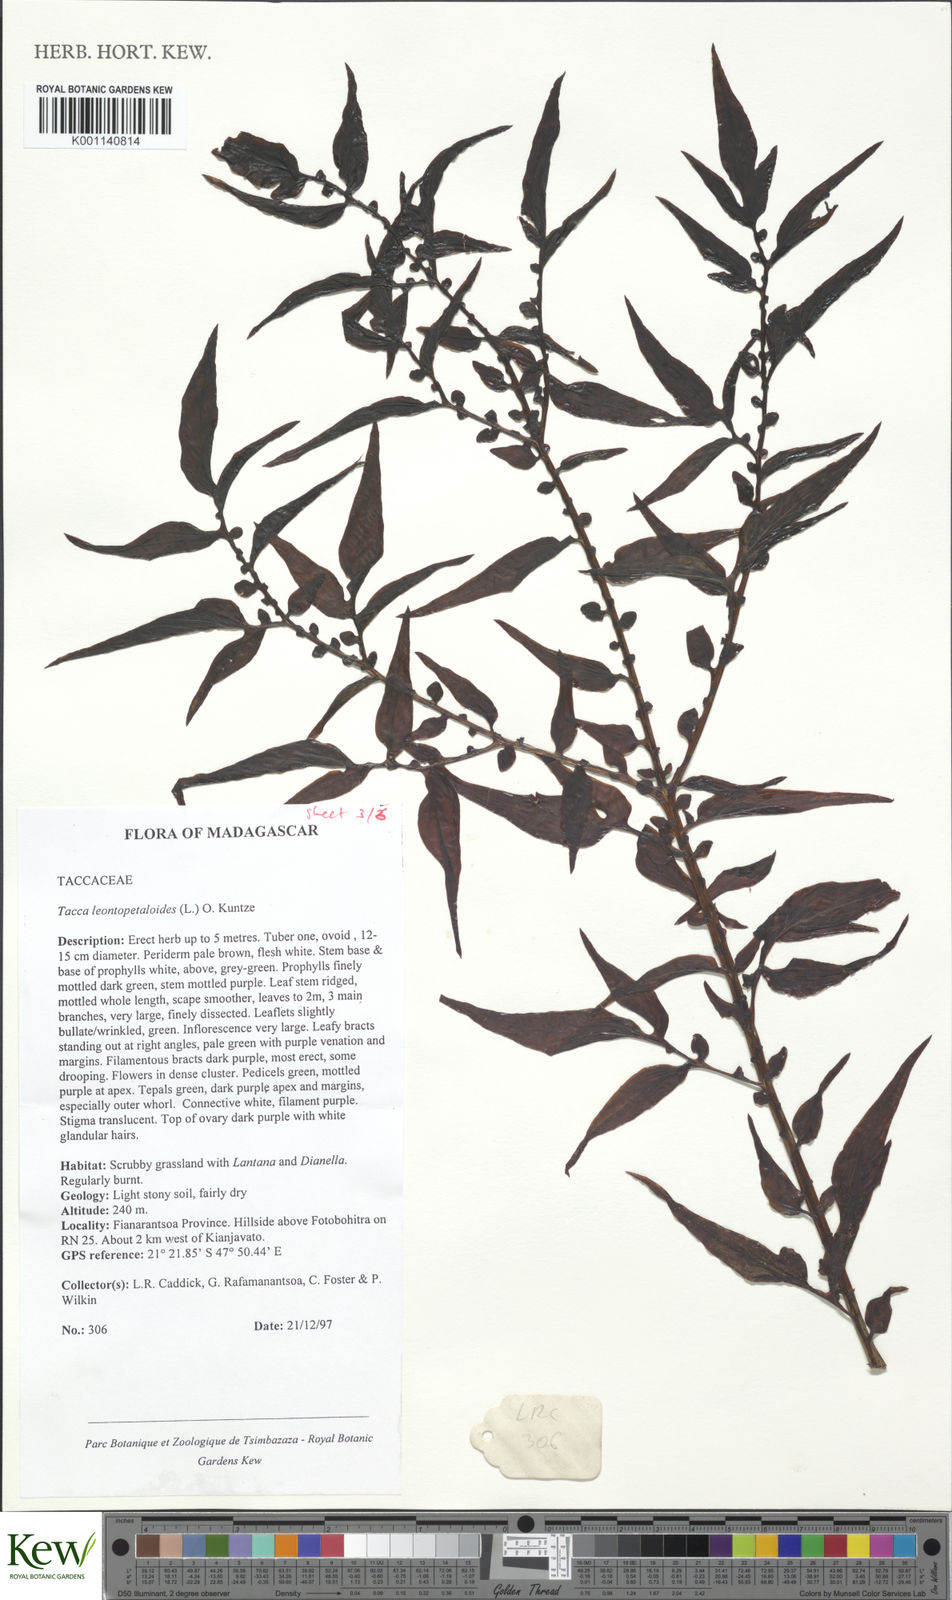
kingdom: Plantae
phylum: Tracheophyta
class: Liliopsida
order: Dioscoreales
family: Dioscoreaceae
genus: Tacca
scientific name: Tacca leontopetaloides
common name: Arrowroot
